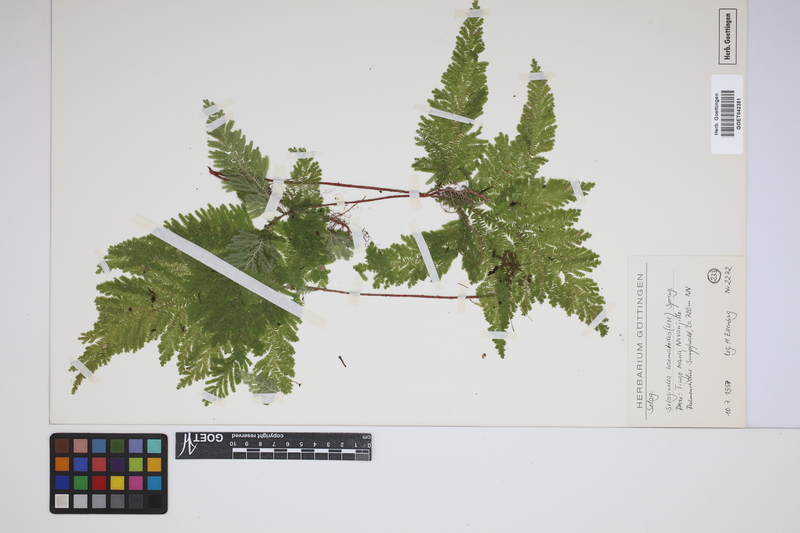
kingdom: Plantae
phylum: Tracheophyta
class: Lycopodiopsida
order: Selaginellales
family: Selaginellaceae
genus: Selaginella
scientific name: Selaginella haematodes
